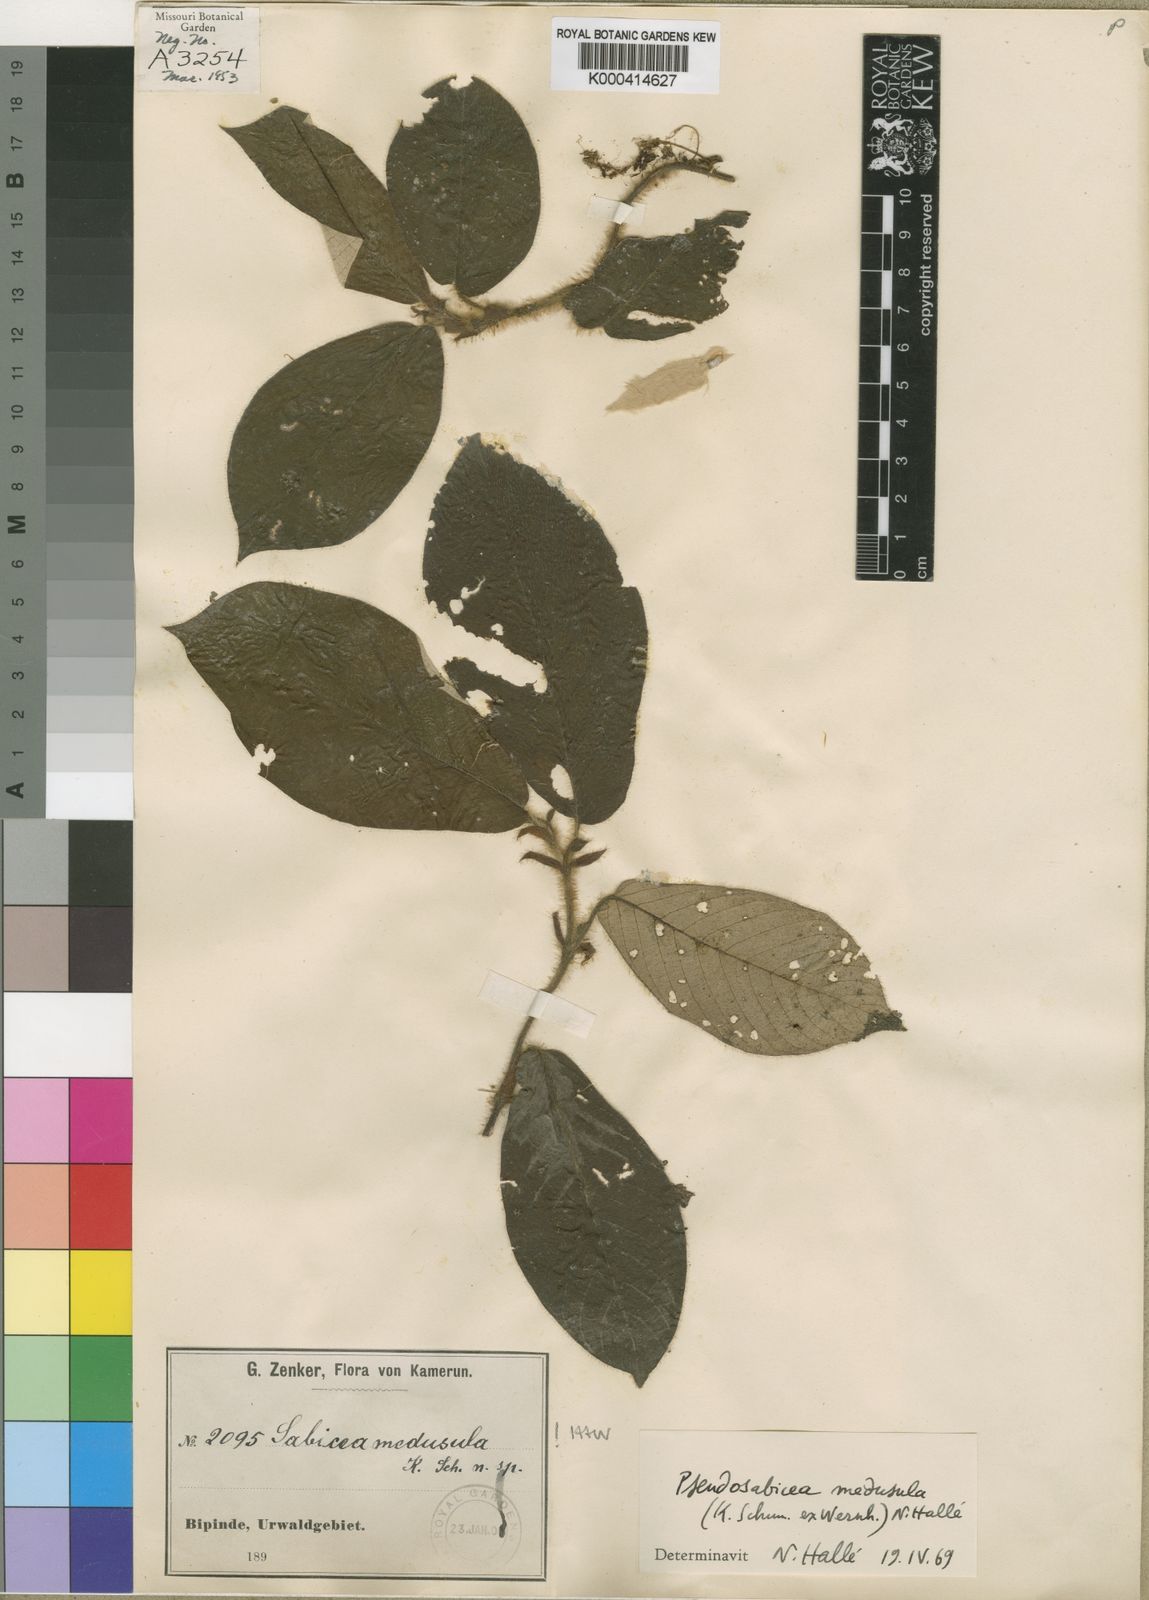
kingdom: Plantae
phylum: Tracheophyta
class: Magnoliopsida
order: Gentianales
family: Rubiaceae
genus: Sabicea
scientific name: Sabicea medusula
